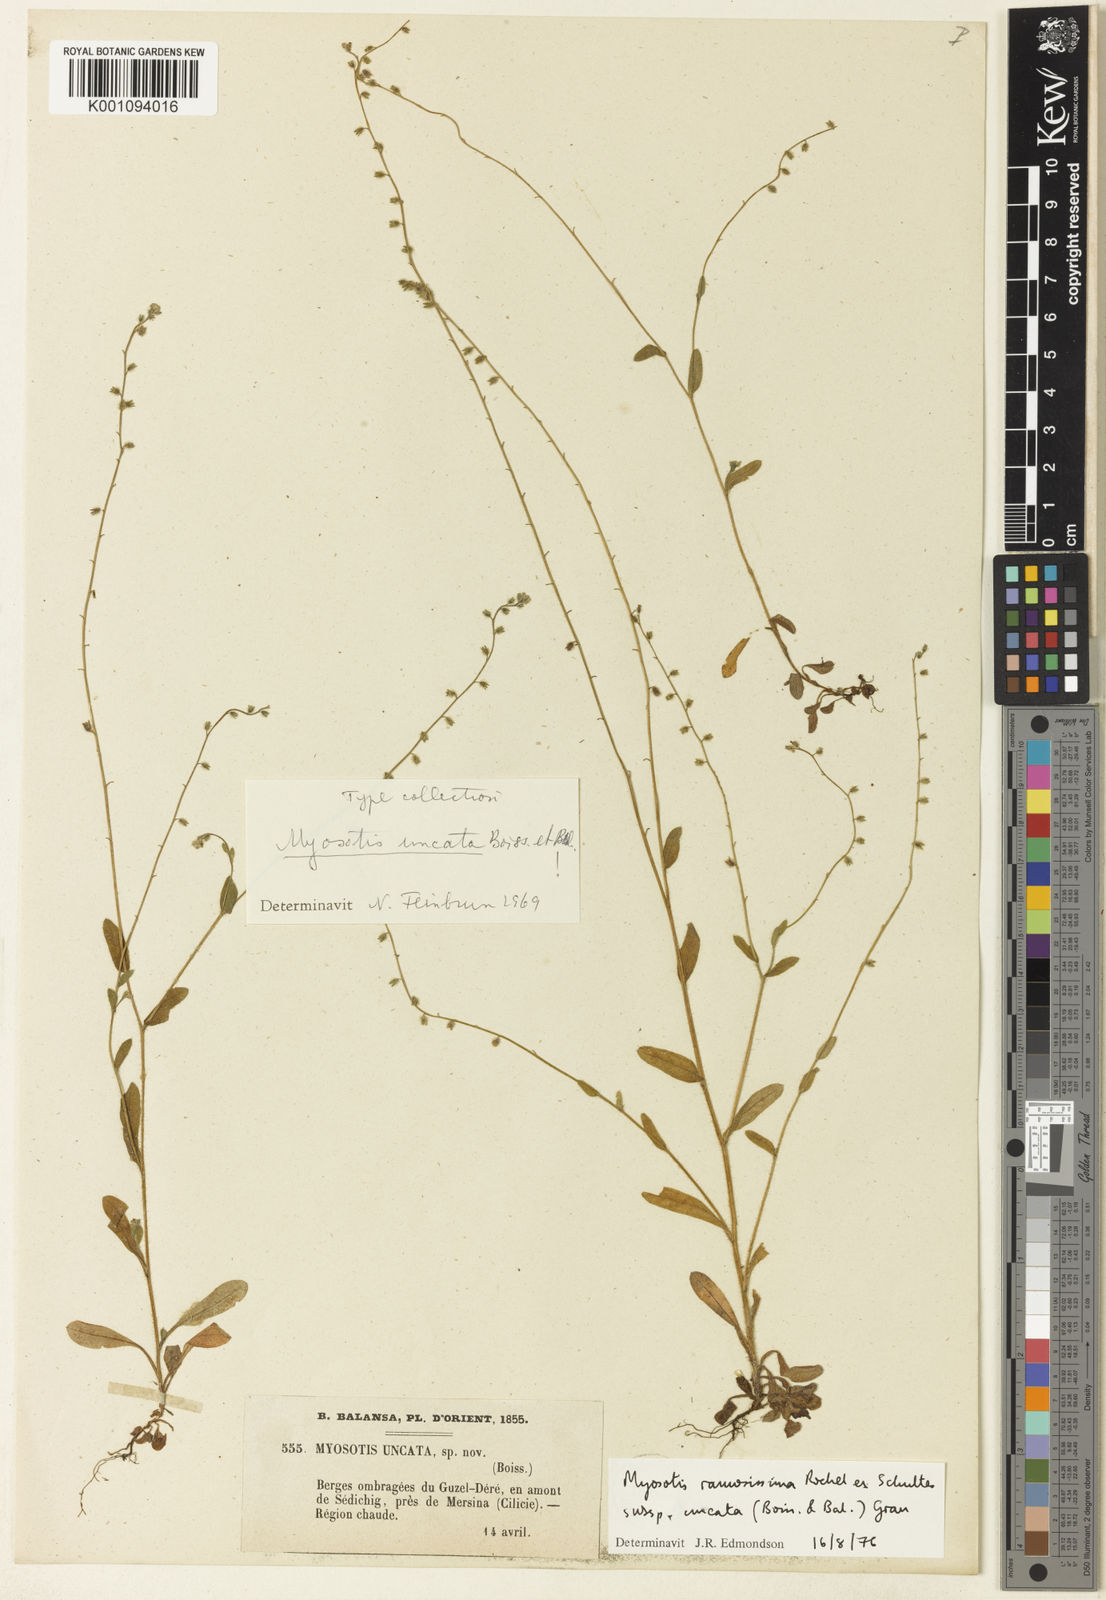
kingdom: Plantae
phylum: Tracheophyta
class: Magnoliopsida
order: Boraginales
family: Boraginaceae
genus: Myosotis
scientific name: Myosotis
